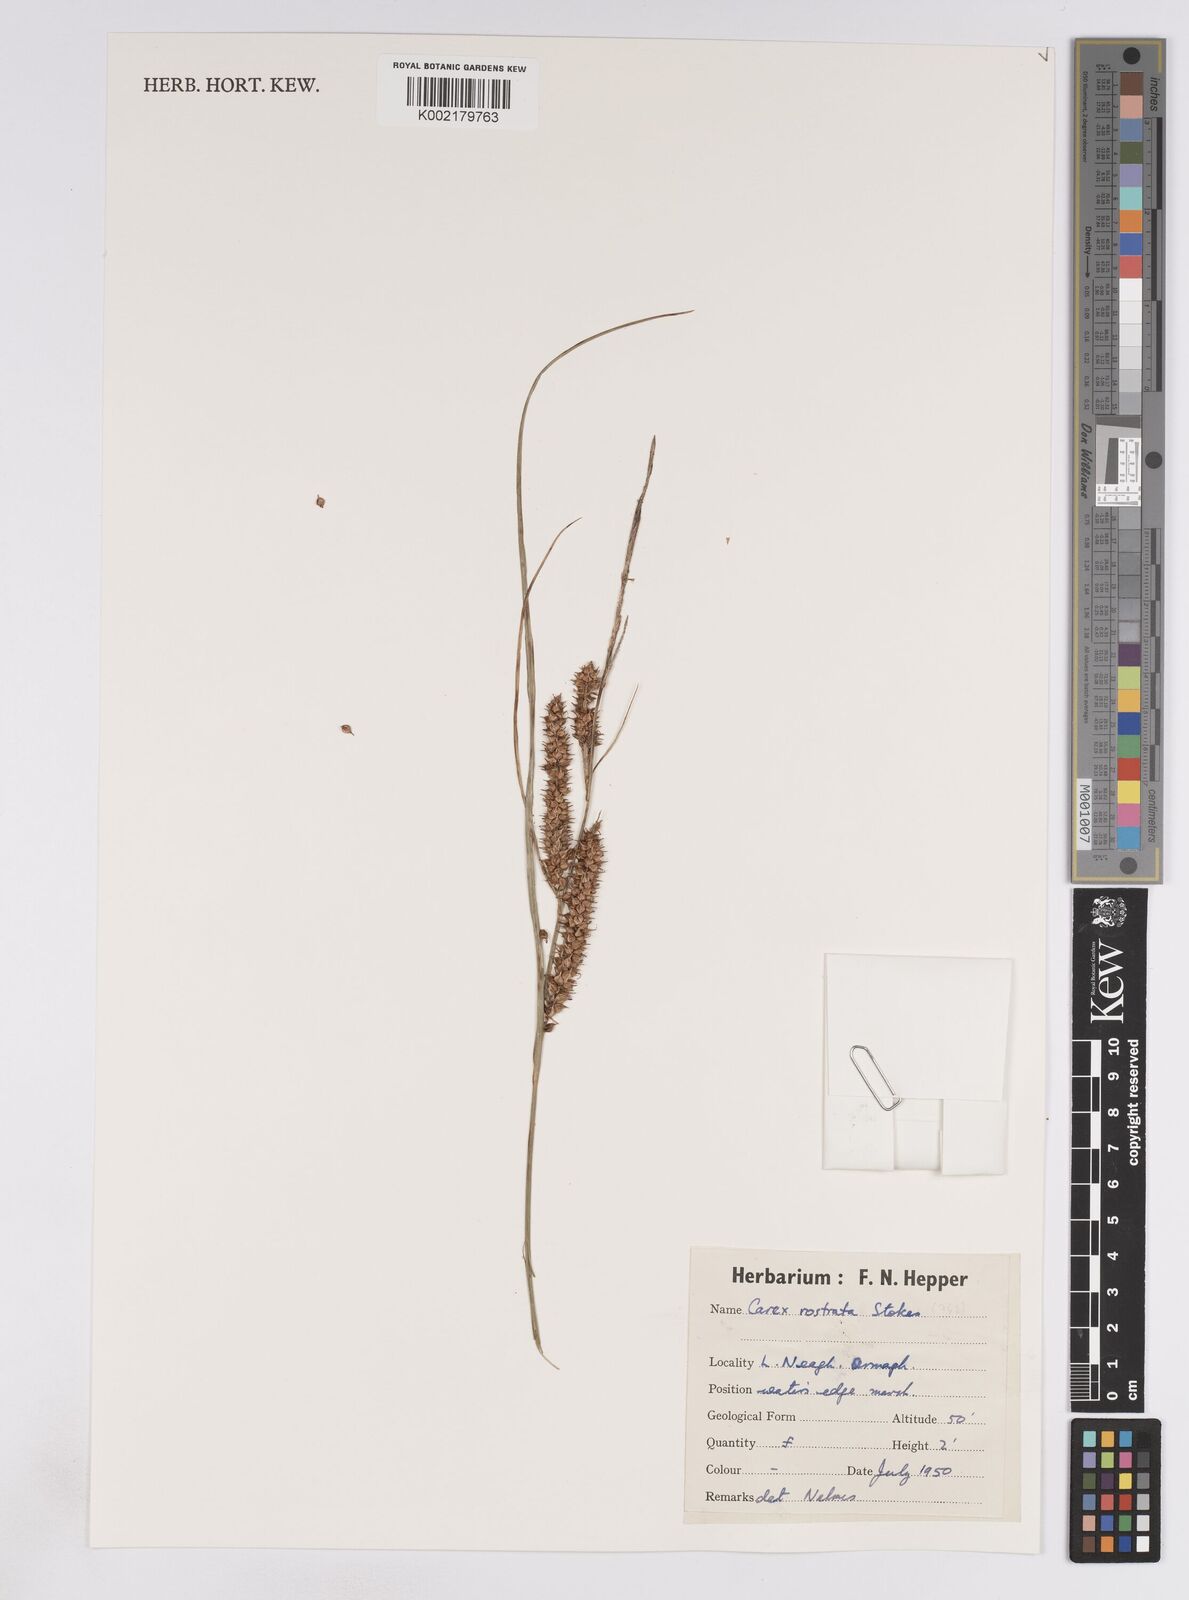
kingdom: Plantae
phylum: Tracheophyta
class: Liliopsida
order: Poales
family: Cyperaceae
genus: Carex
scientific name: Carex rostrata
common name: Bottle sedge
